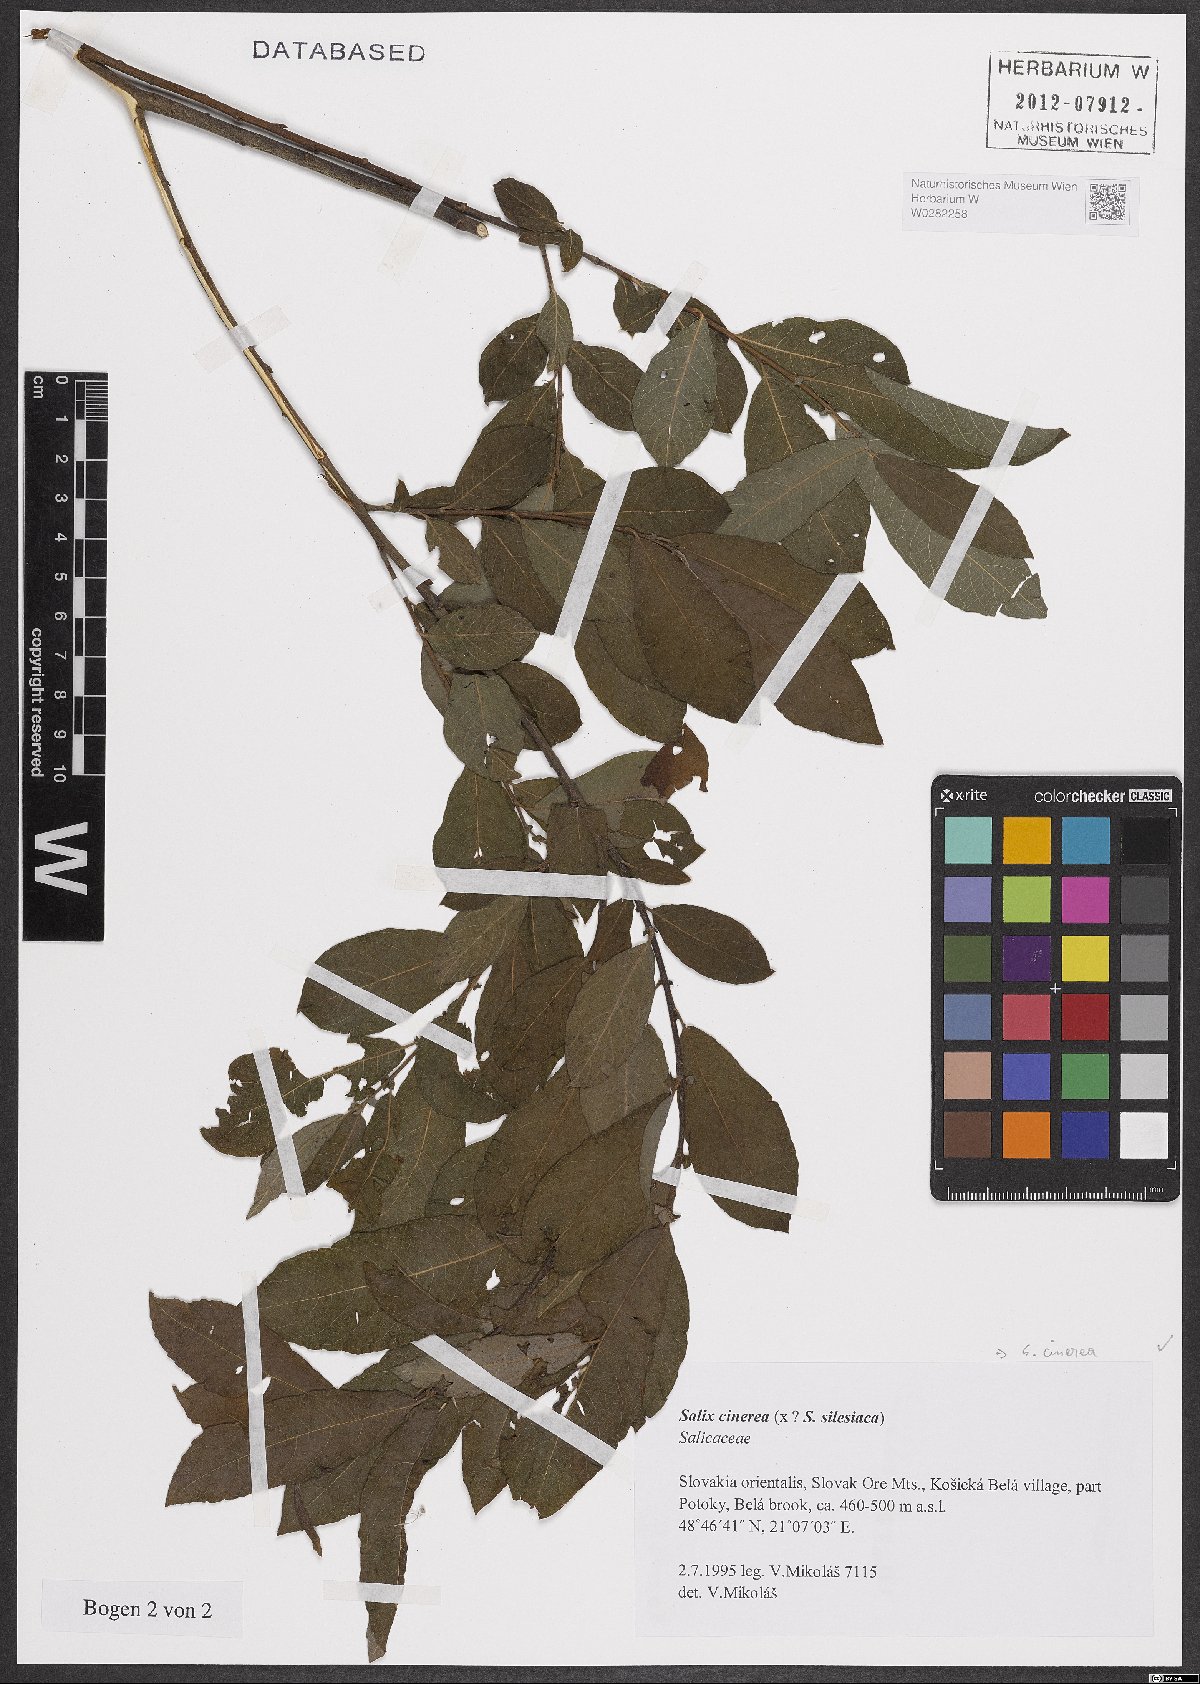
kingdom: Plantae
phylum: Tracheophyta
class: Magnoliopsida
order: Malpighiales
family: Salicaceae
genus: Salix
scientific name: Salix cinerea
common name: Common sallow
